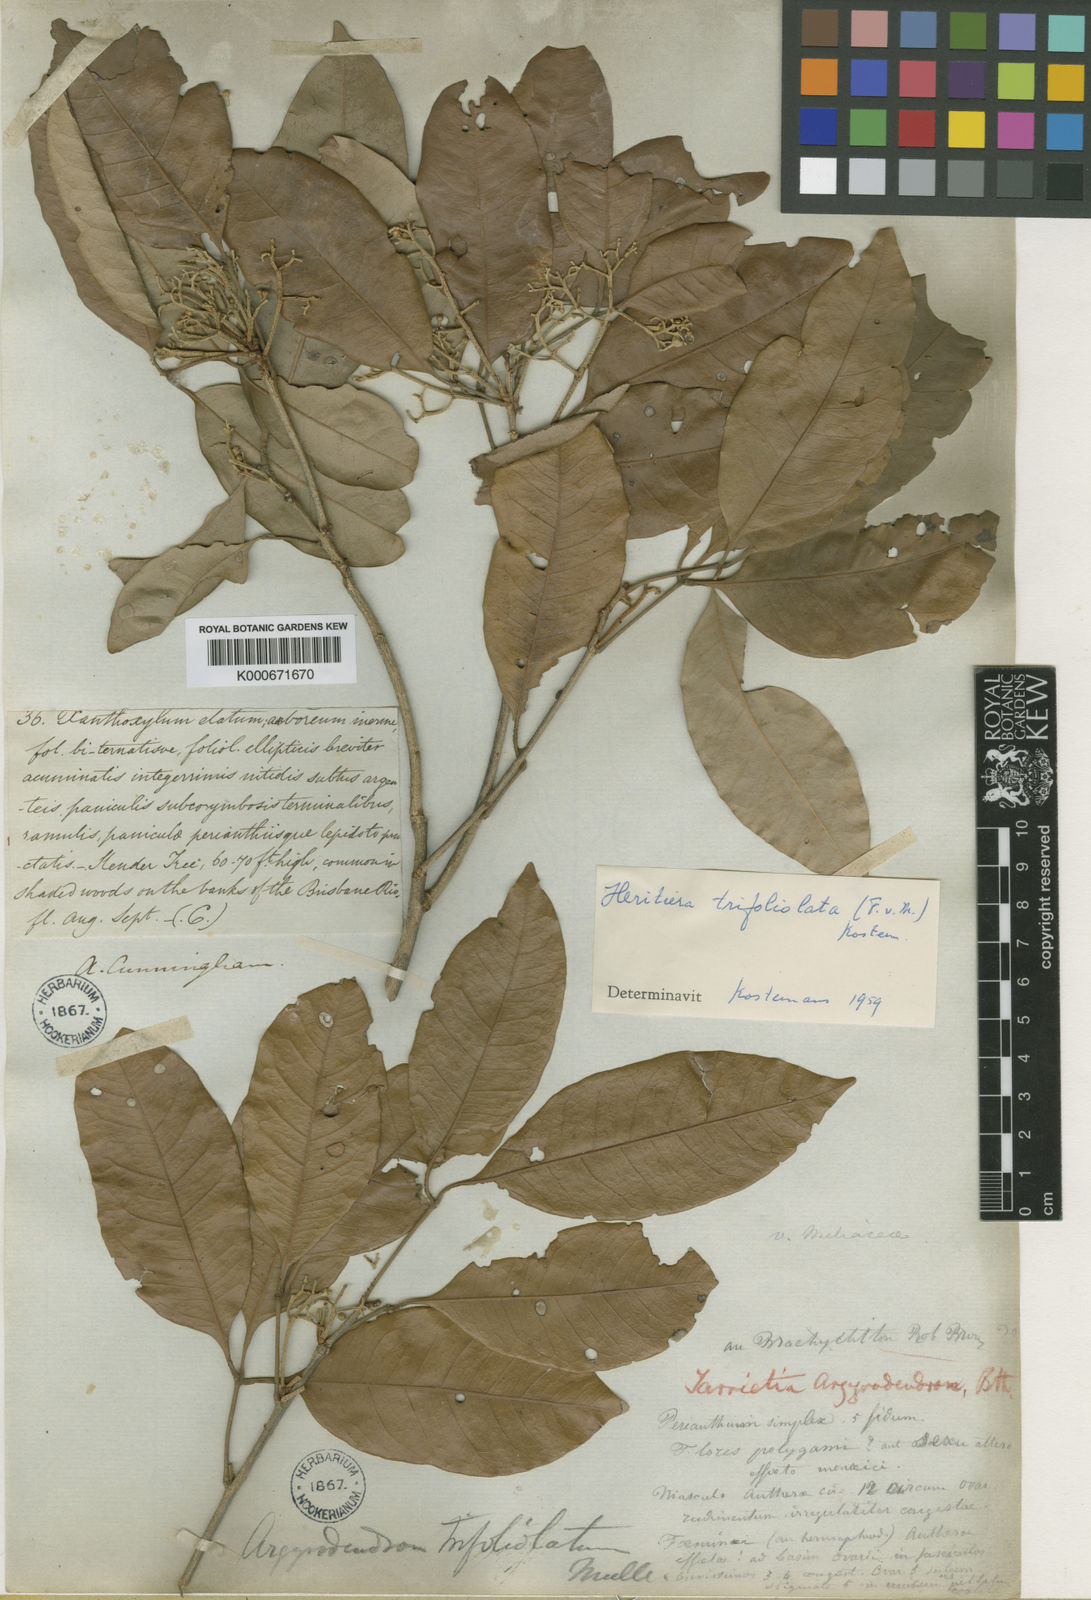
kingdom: Plantae
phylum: Tracheophyta
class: Magnoliopsida
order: Malvales
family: Malvaceae
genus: Argyrodendron
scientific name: Argyrodendron trifoliolatum
